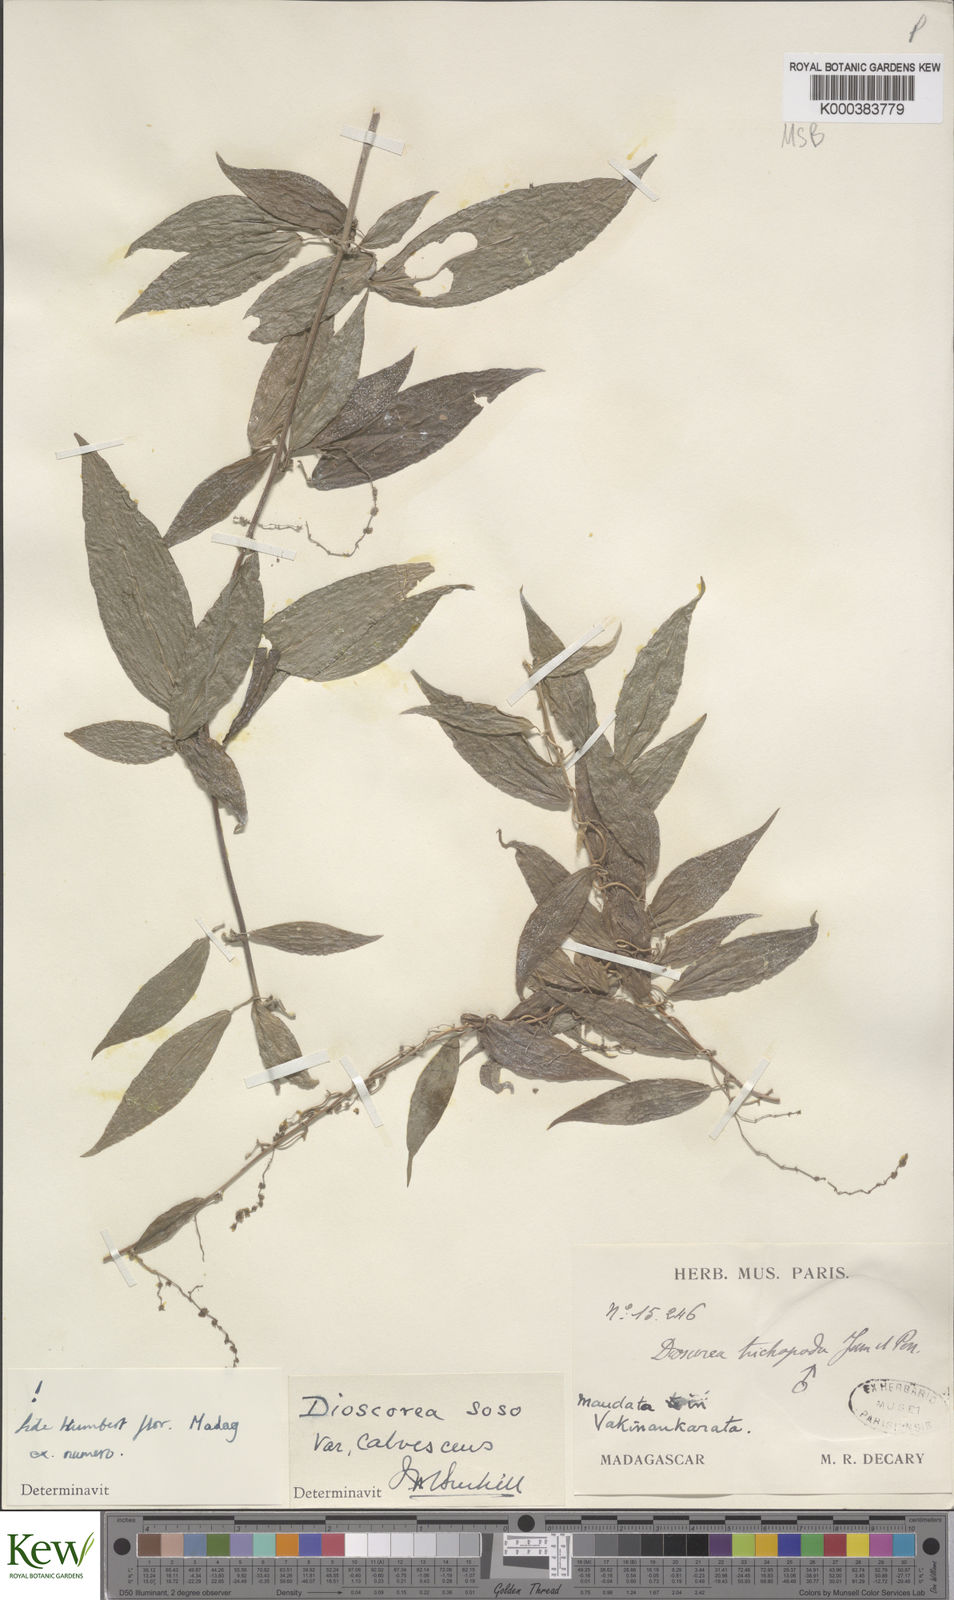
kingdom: Plantae
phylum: Tracheophyta
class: Liliopsida
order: Dioscoreales
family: Dioscoreaceae
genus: Dioscorea
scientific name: Dioscorea
